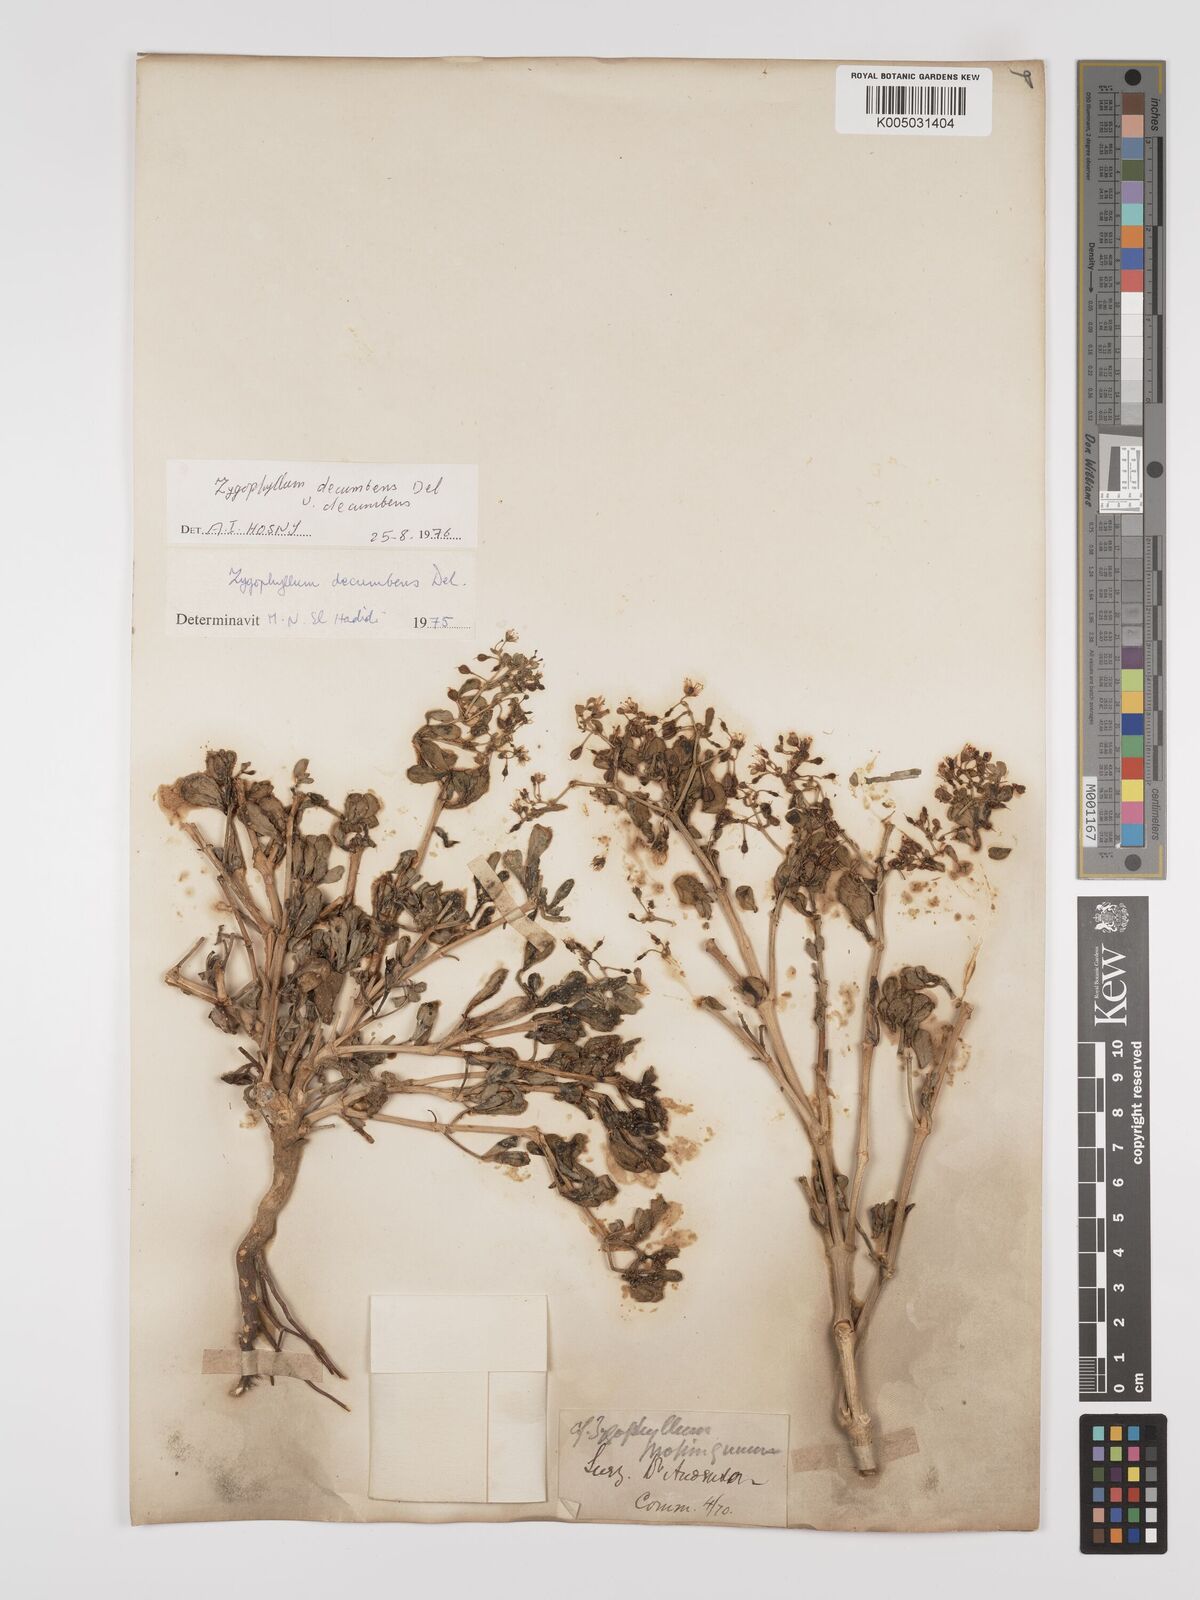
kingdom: Plantae
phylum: Tracheophyta
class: Magnoliopsida
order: Zygophyllales
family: Zygophyllaceae
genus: Tetraena
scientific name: Tetraena decumbens
